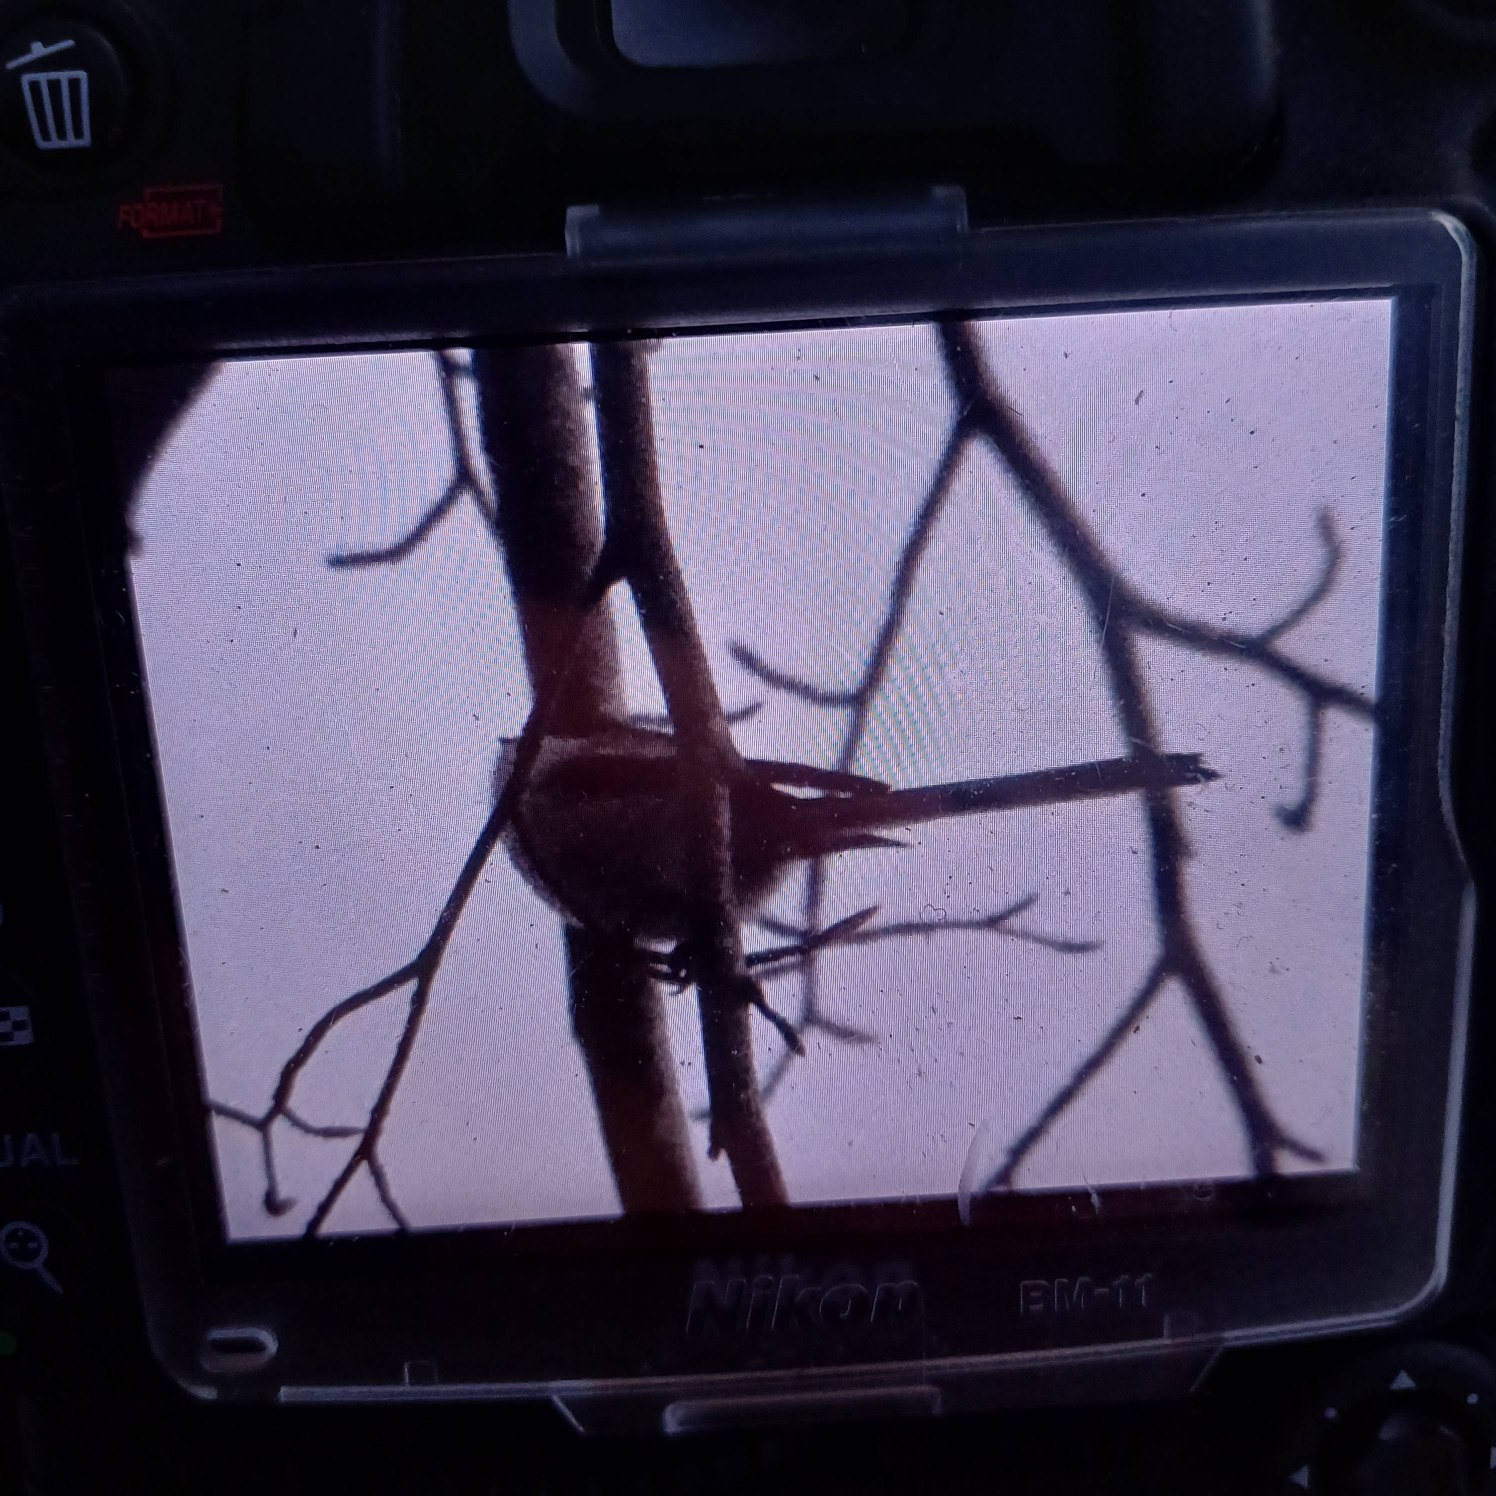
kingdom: Animalia
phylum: Chordata
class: Aves
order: Passeriformes
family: Aegithalidae
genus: Aegithalos
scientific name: Aegithalos caudatus
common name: Halemejse
